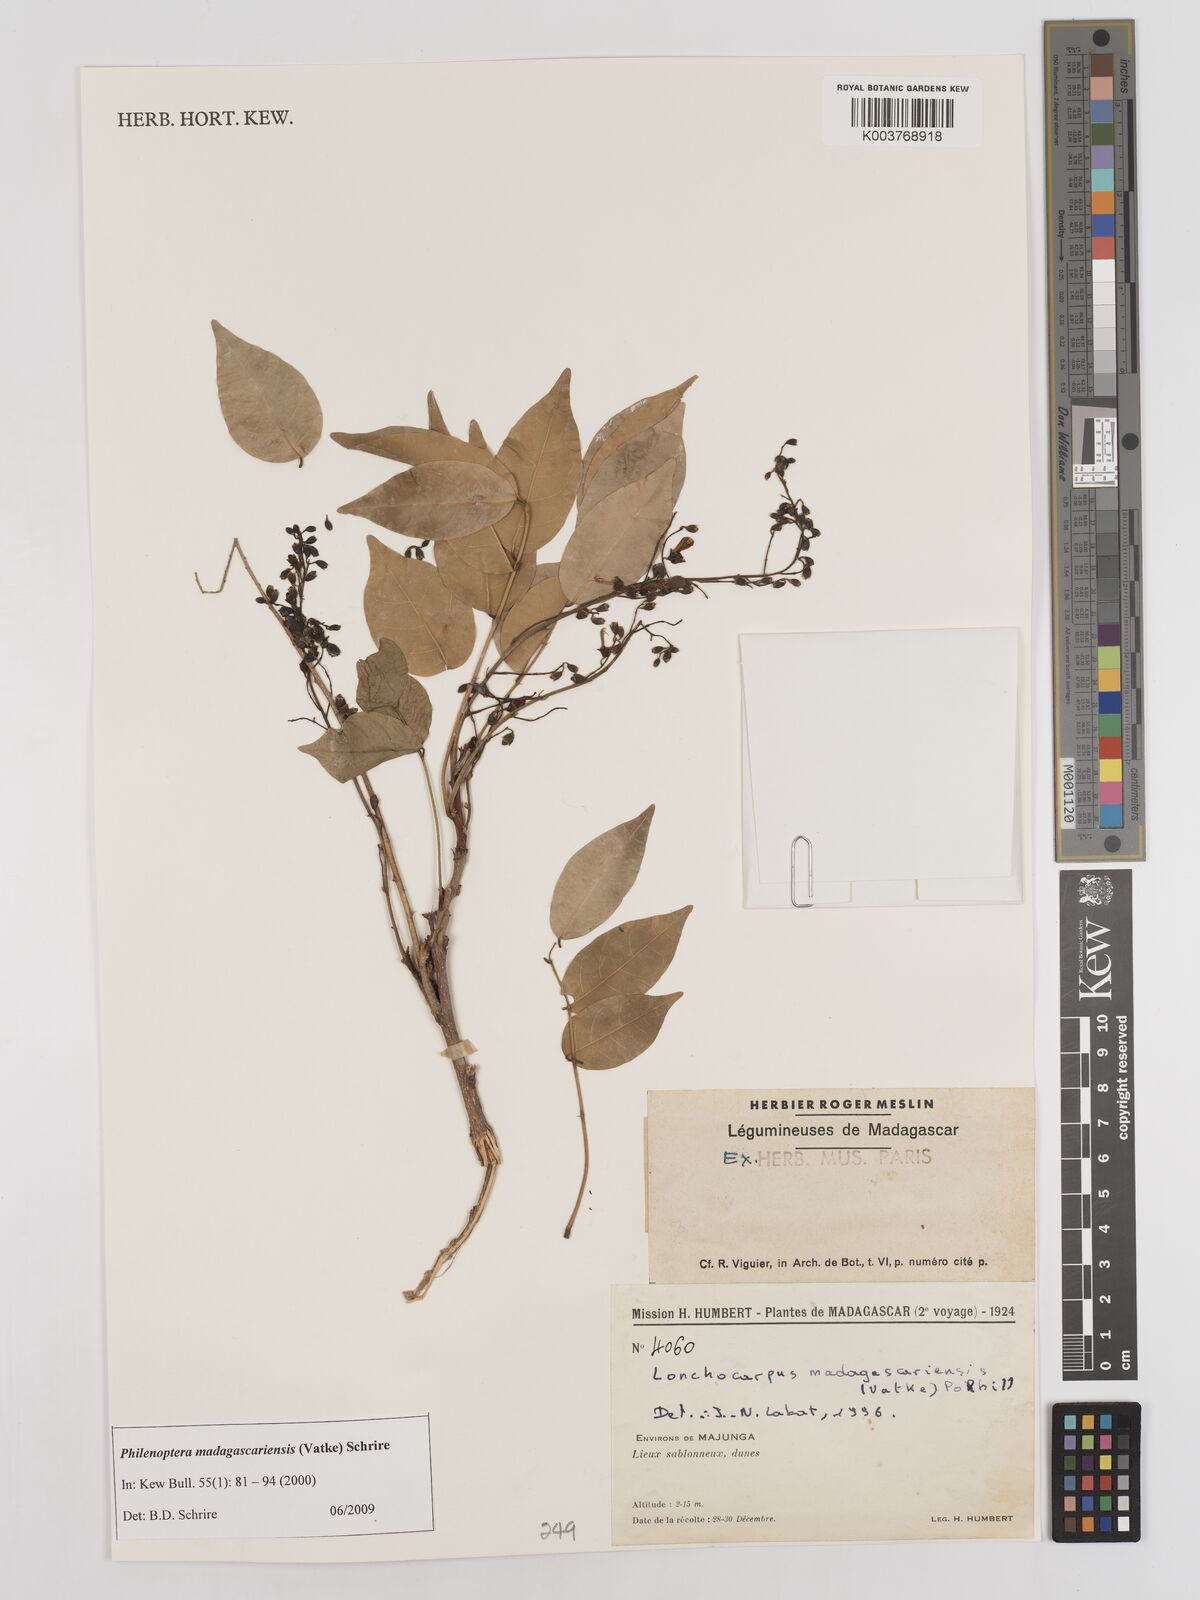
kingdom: Plantae
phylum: Tracheophyta
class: Magnoliopsida
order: Fabales
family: Fabaceae
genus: Lonchocarpus
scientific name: Lonchocarpus madagascariensis
